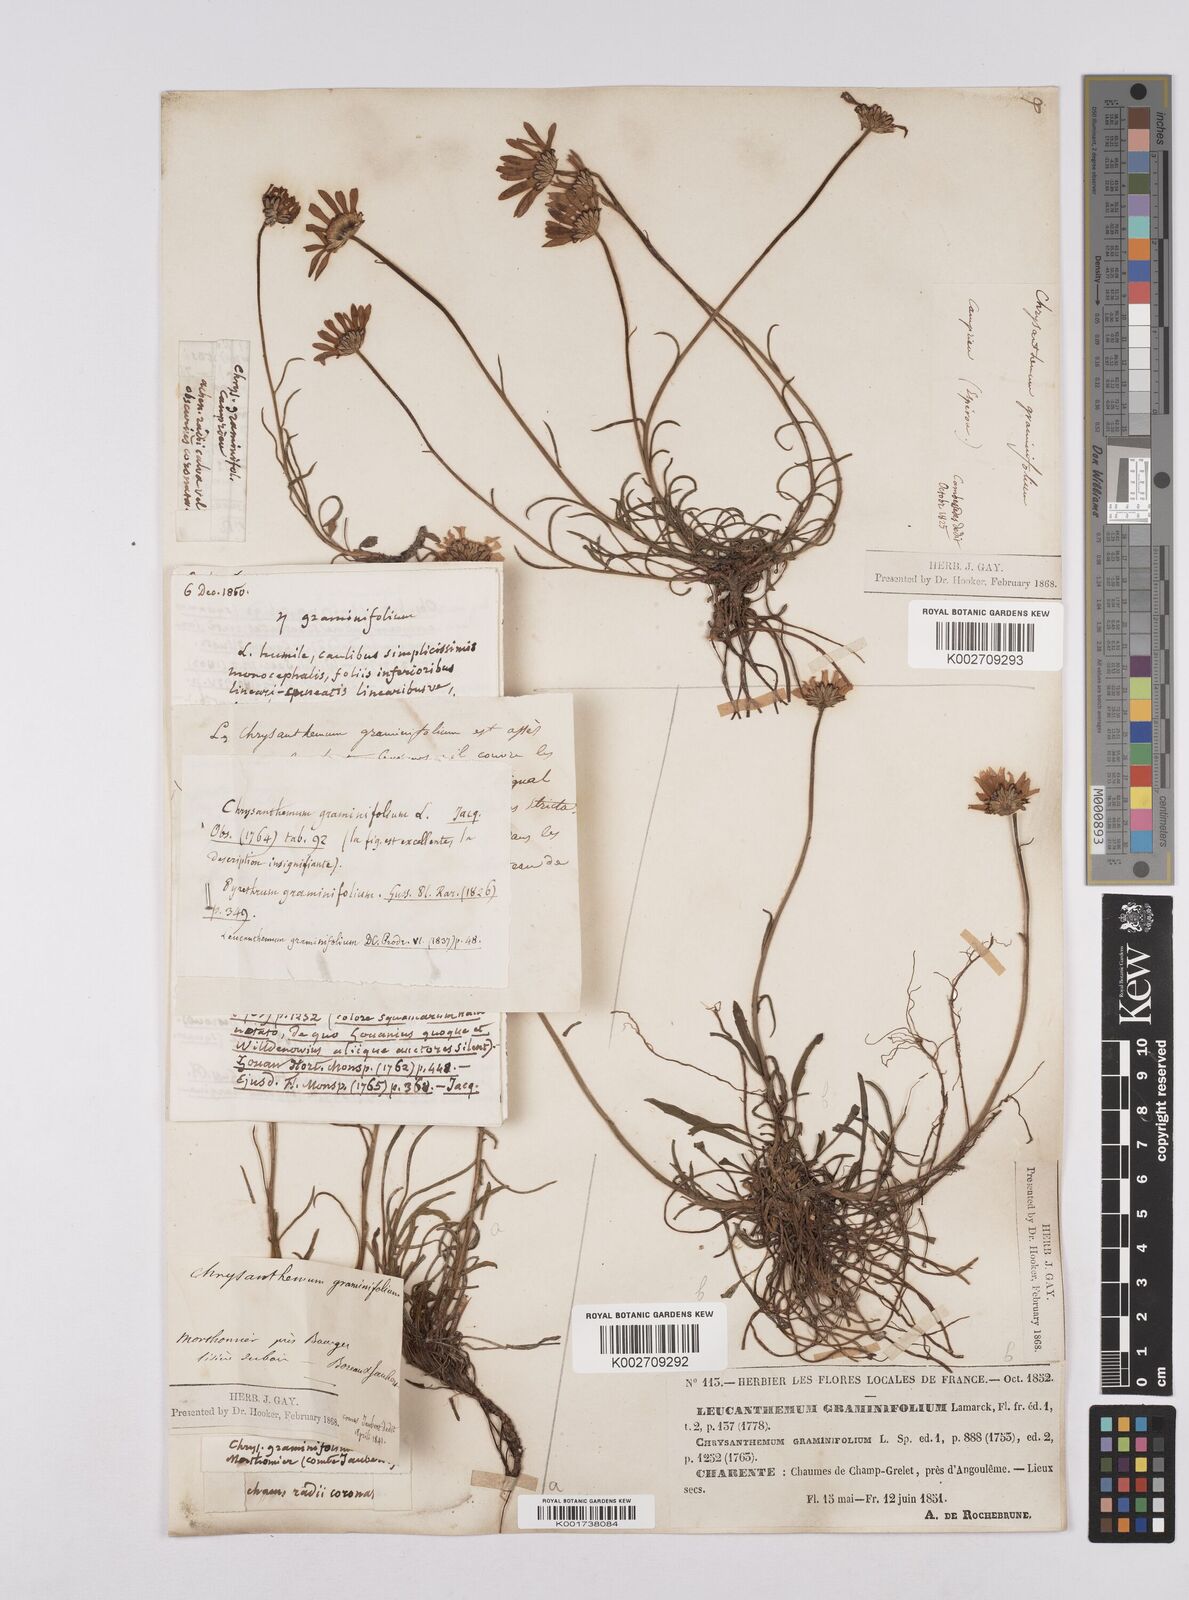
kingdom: Plantae
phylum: Tracheophyta
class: Magnoliopsida
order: Asterales
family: Asteraceae
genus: Leucanthemum
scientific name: Leucanthemum chloroticum
